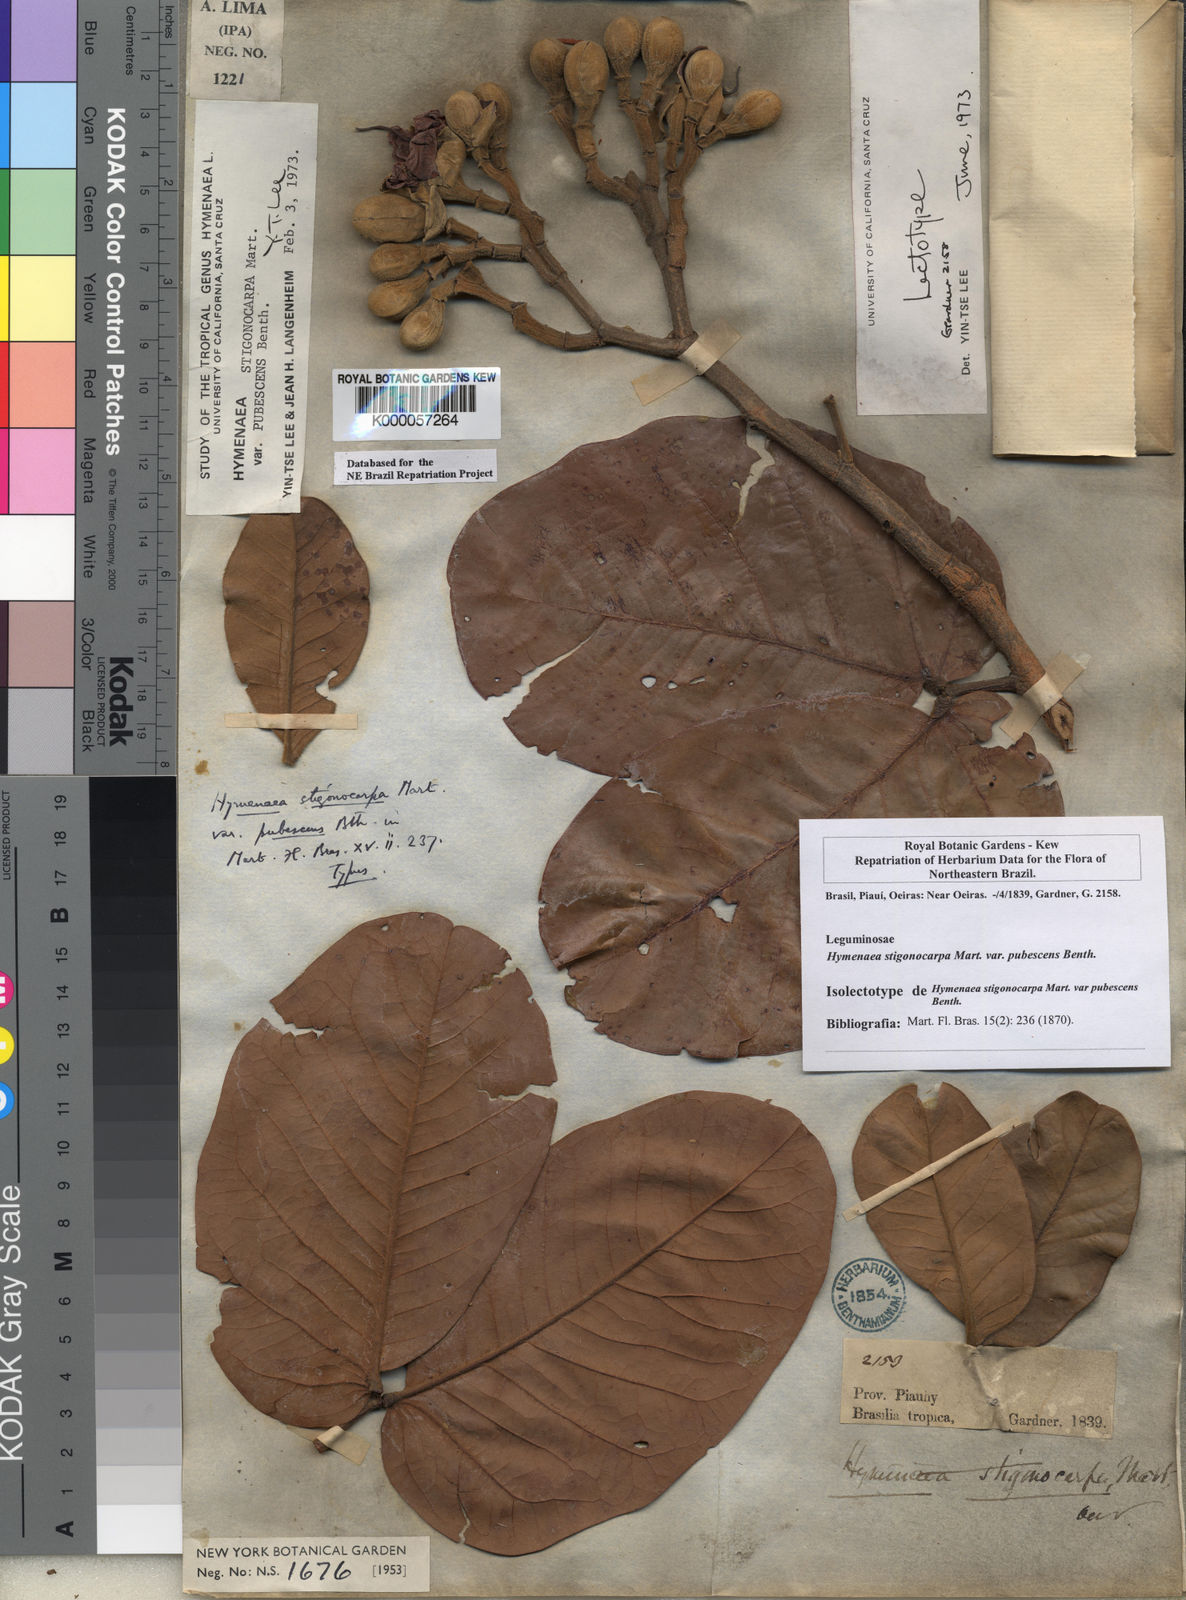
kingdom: Plantae
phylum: Tracheophyta
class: Magnoliopsida
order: Fabales
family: Fabaceae
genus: Hymenaea
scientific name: Hymenaea stigonocarpa
